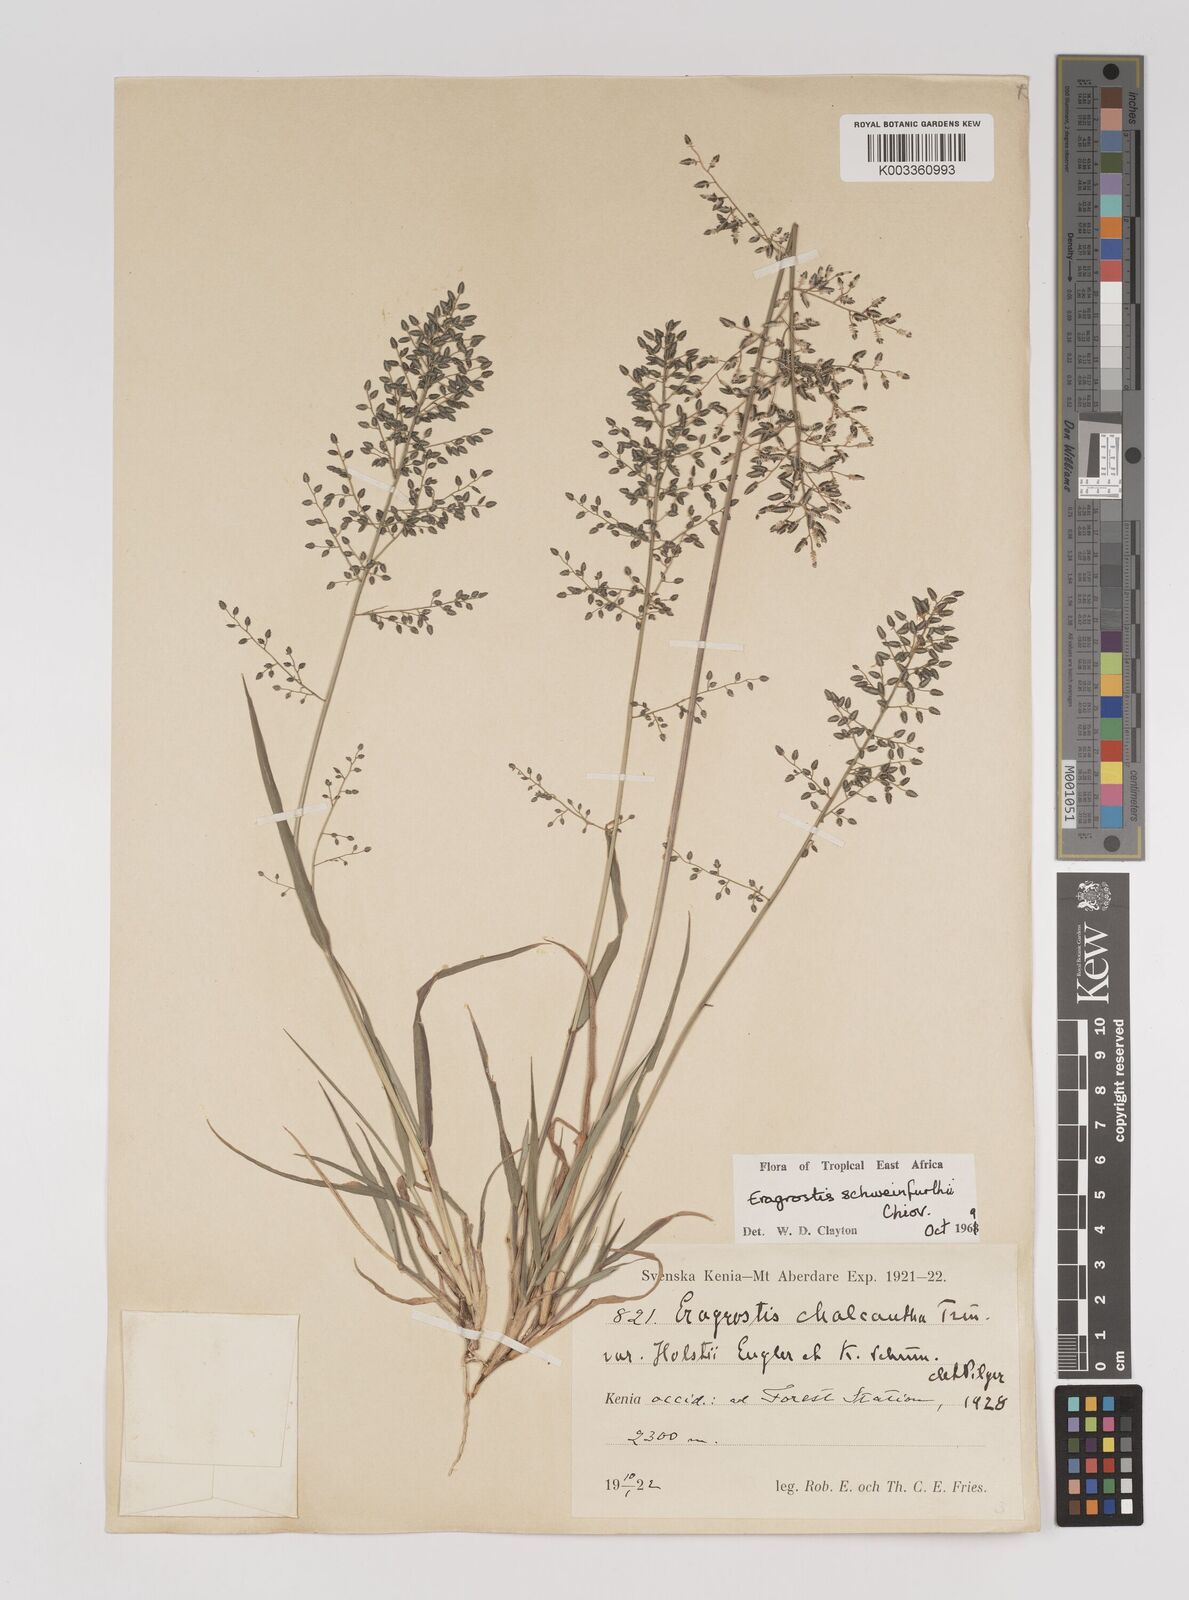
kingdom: Plantae
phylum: Tracheophyta
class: Liliopsida
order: Poales
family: Poaceae
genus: Eragrostis
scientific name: Eragrostis schweinfurthii
